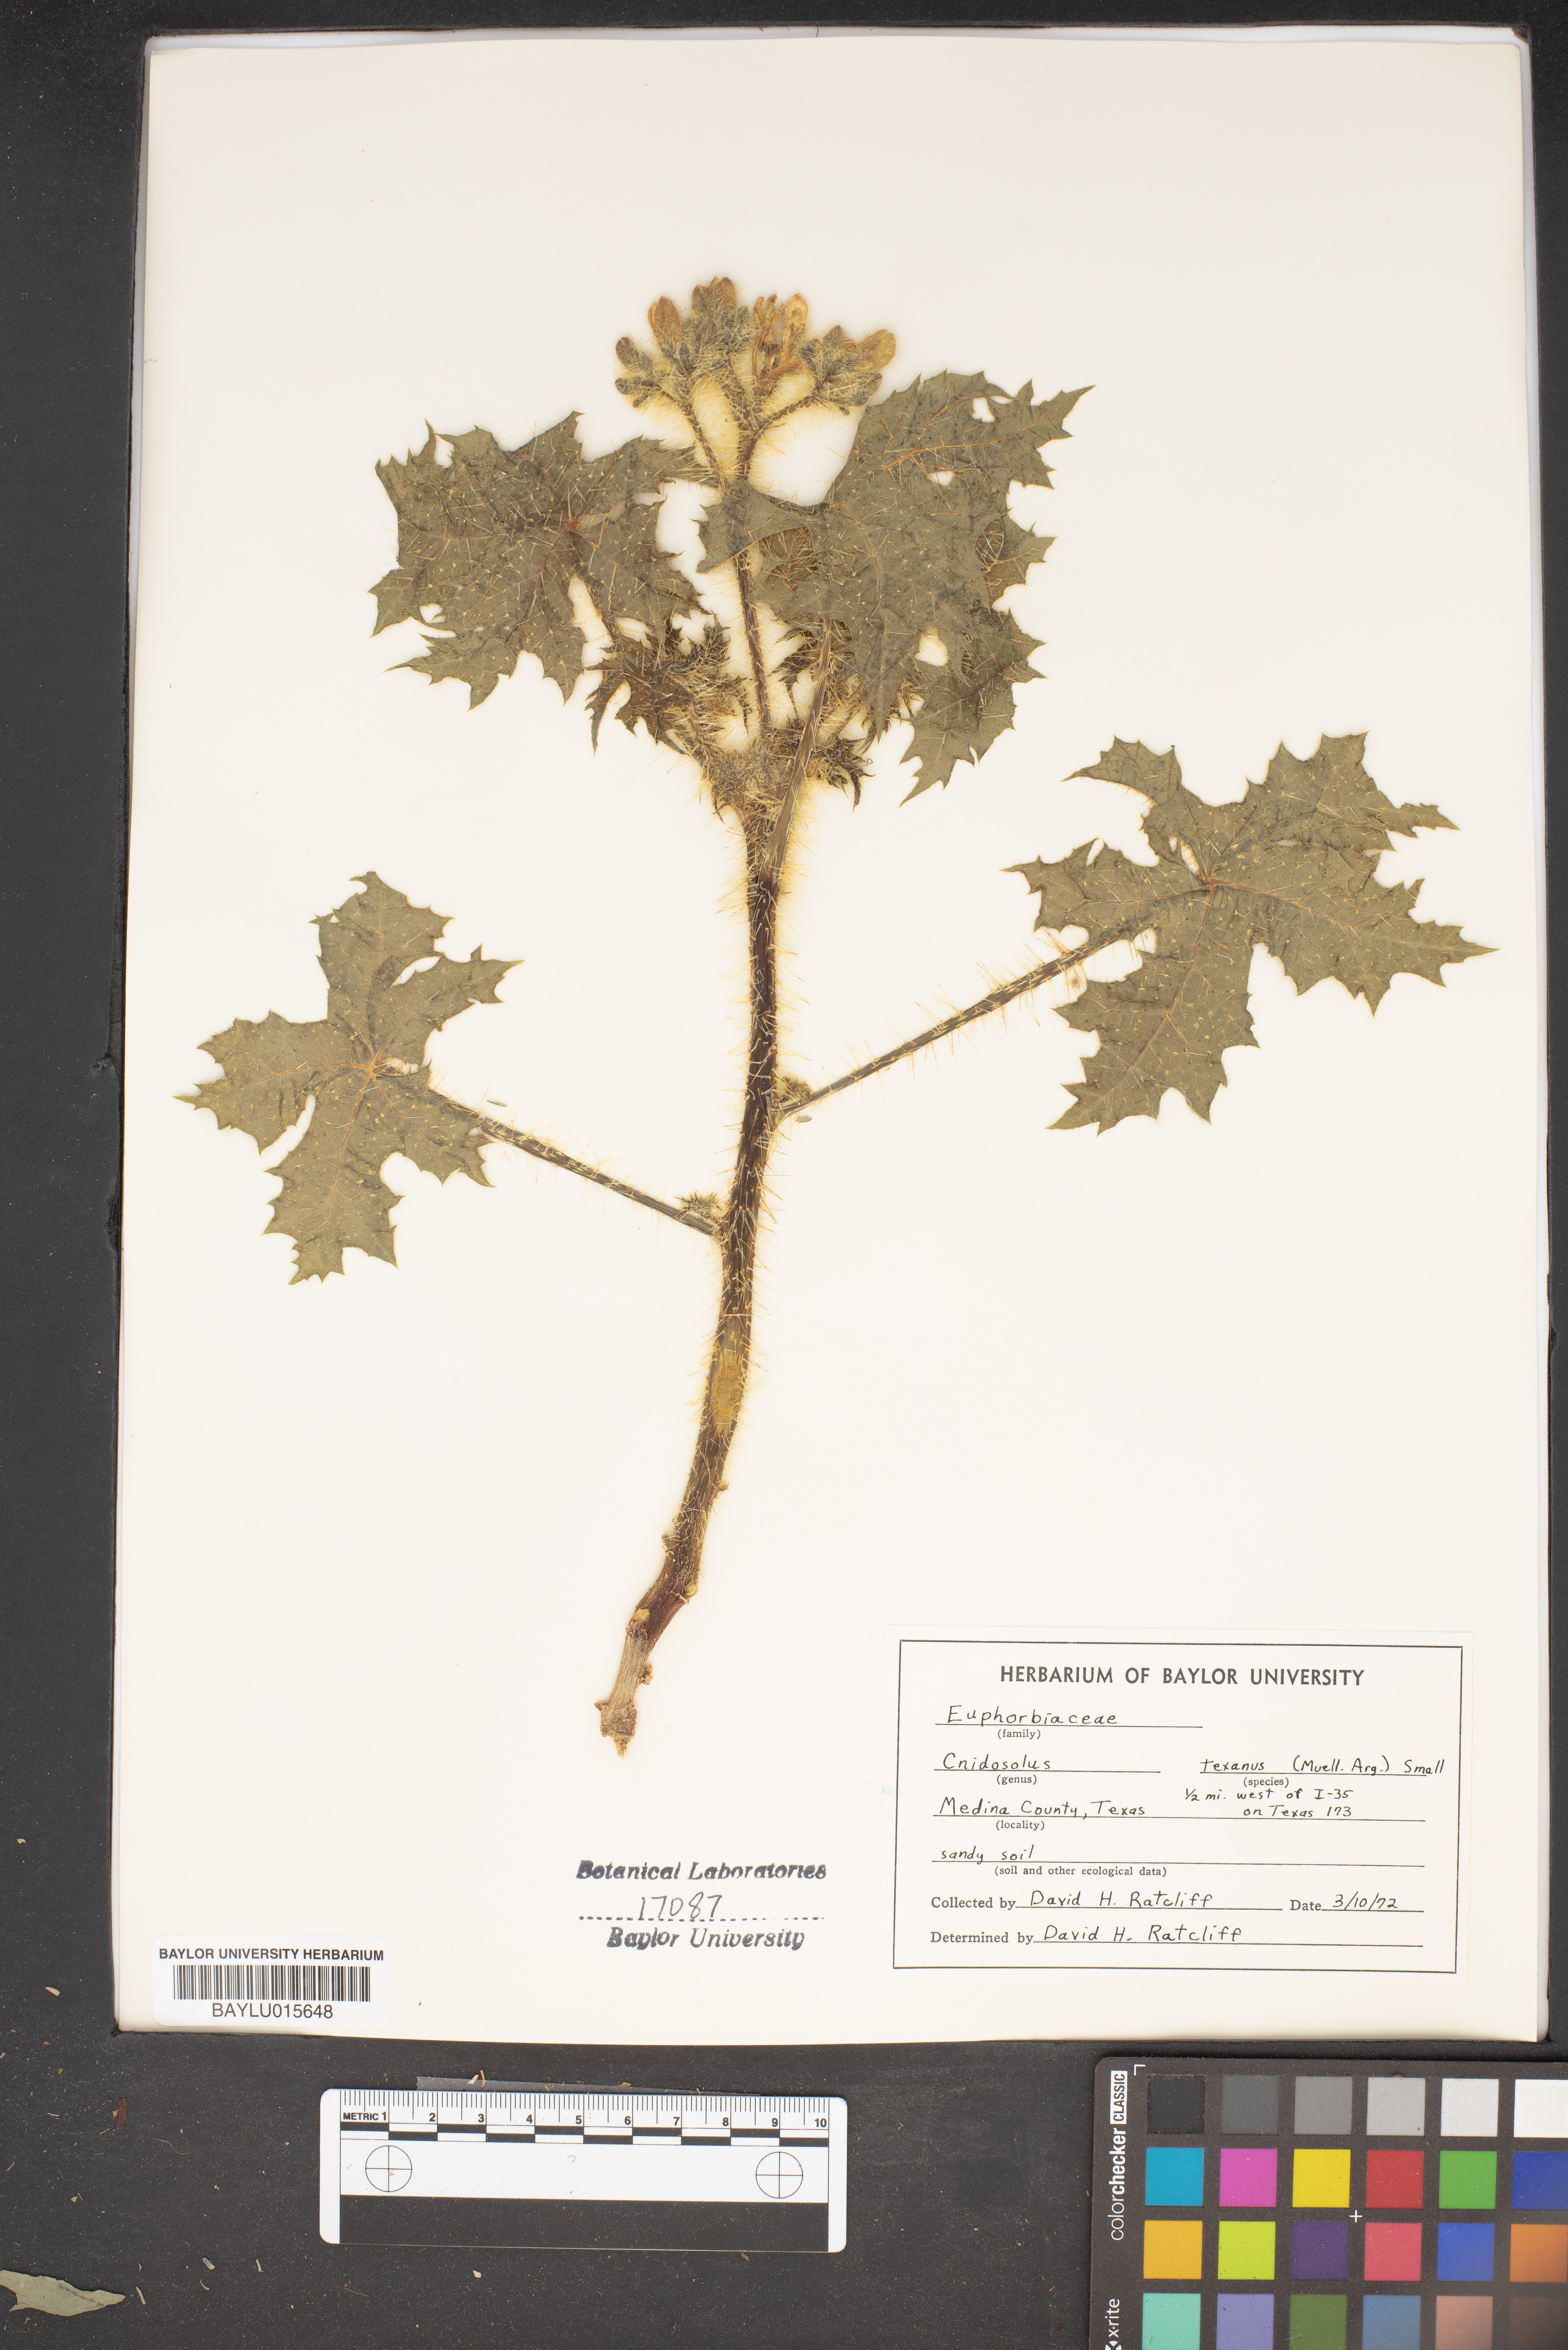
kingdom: Plantae
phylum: Tracheophyta
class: Magnoliopsida
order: Malpighiales
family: Euphorbiaceae
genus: Cnidoscolus
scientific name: Cnidoscolus texanus
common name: Texas bull-nettle
